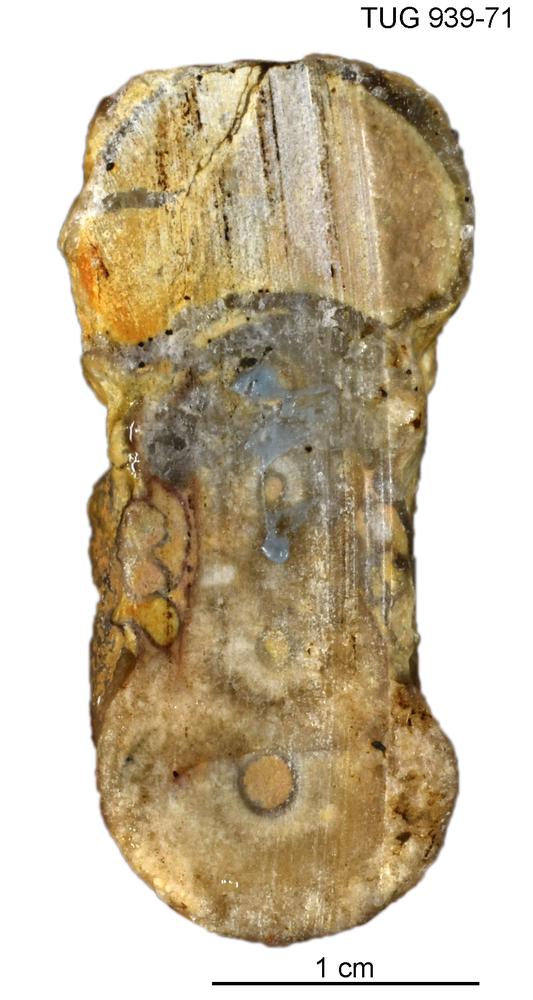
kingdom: Animalia
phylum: Mollusca
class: Cephalopoda
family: Trocholitidae
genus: Trocholites
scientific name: Trocholites gennadii
